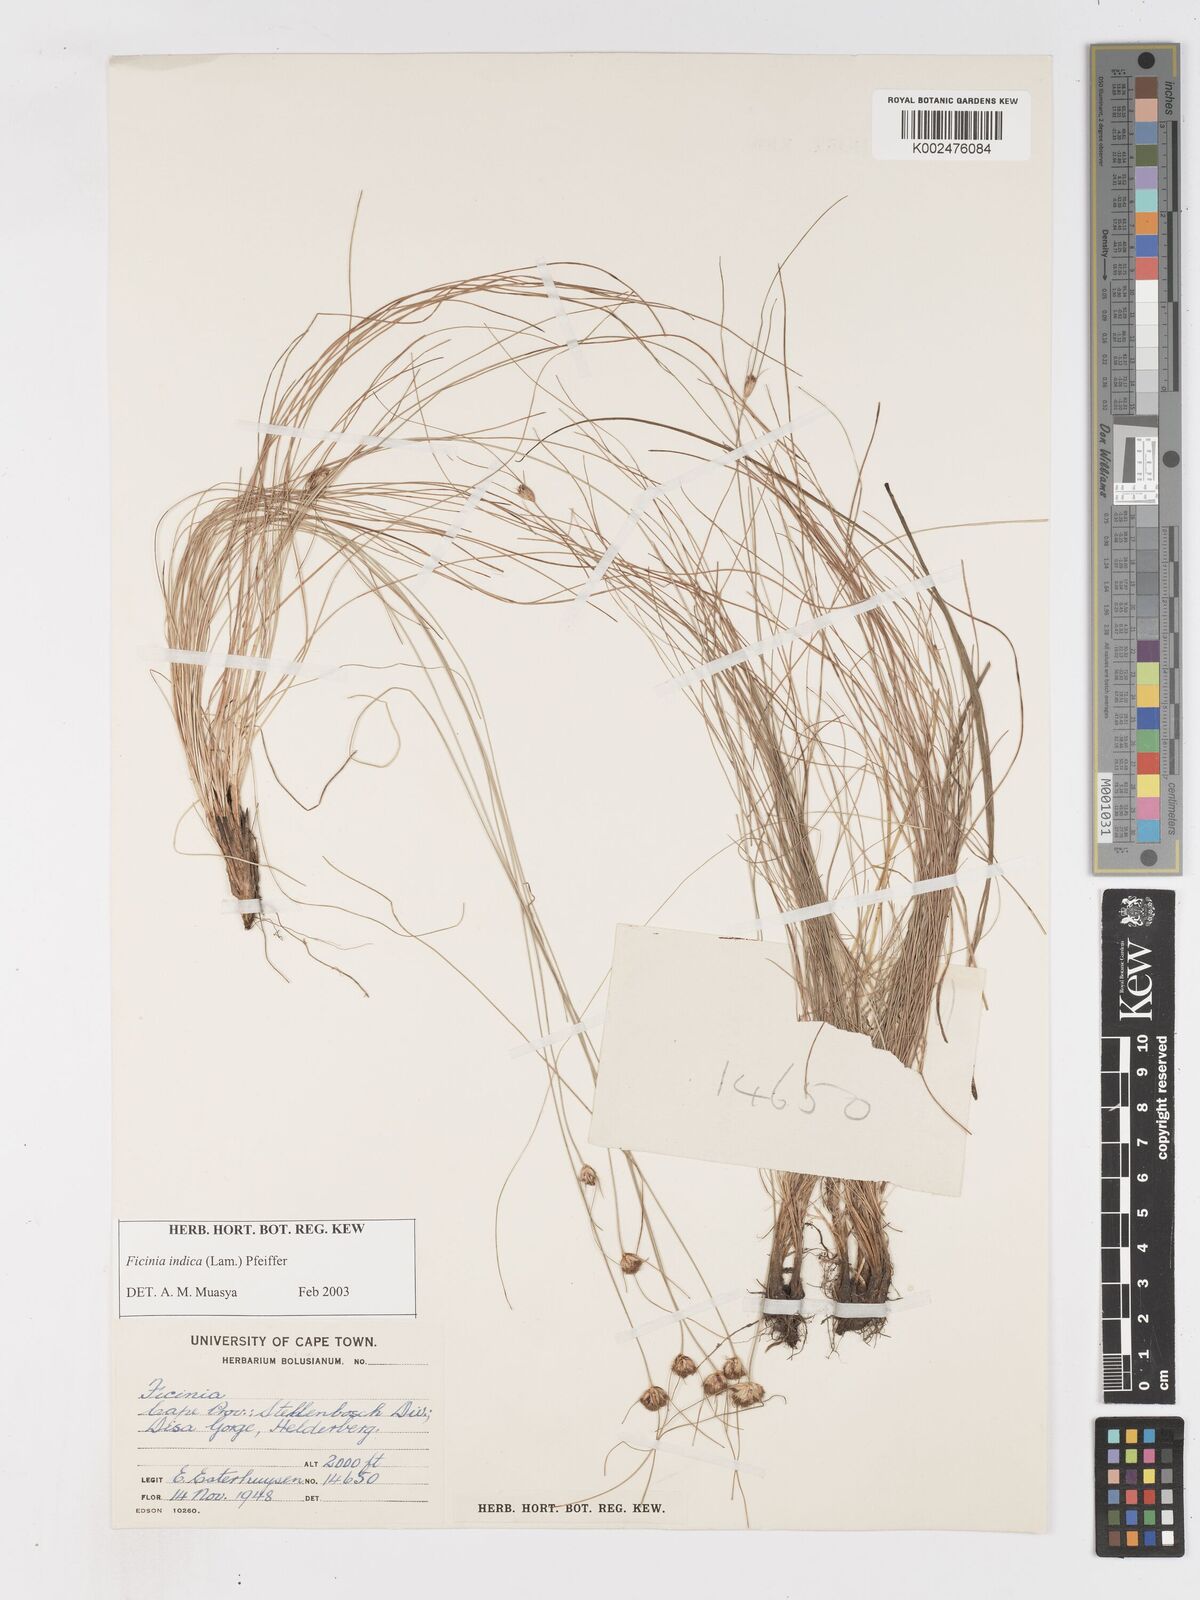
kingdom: Plantae
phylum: Tracheophyta
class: Liliopsida
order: Poales
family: Cyperaceae
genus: Ficinia
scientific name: Ficinia indica
